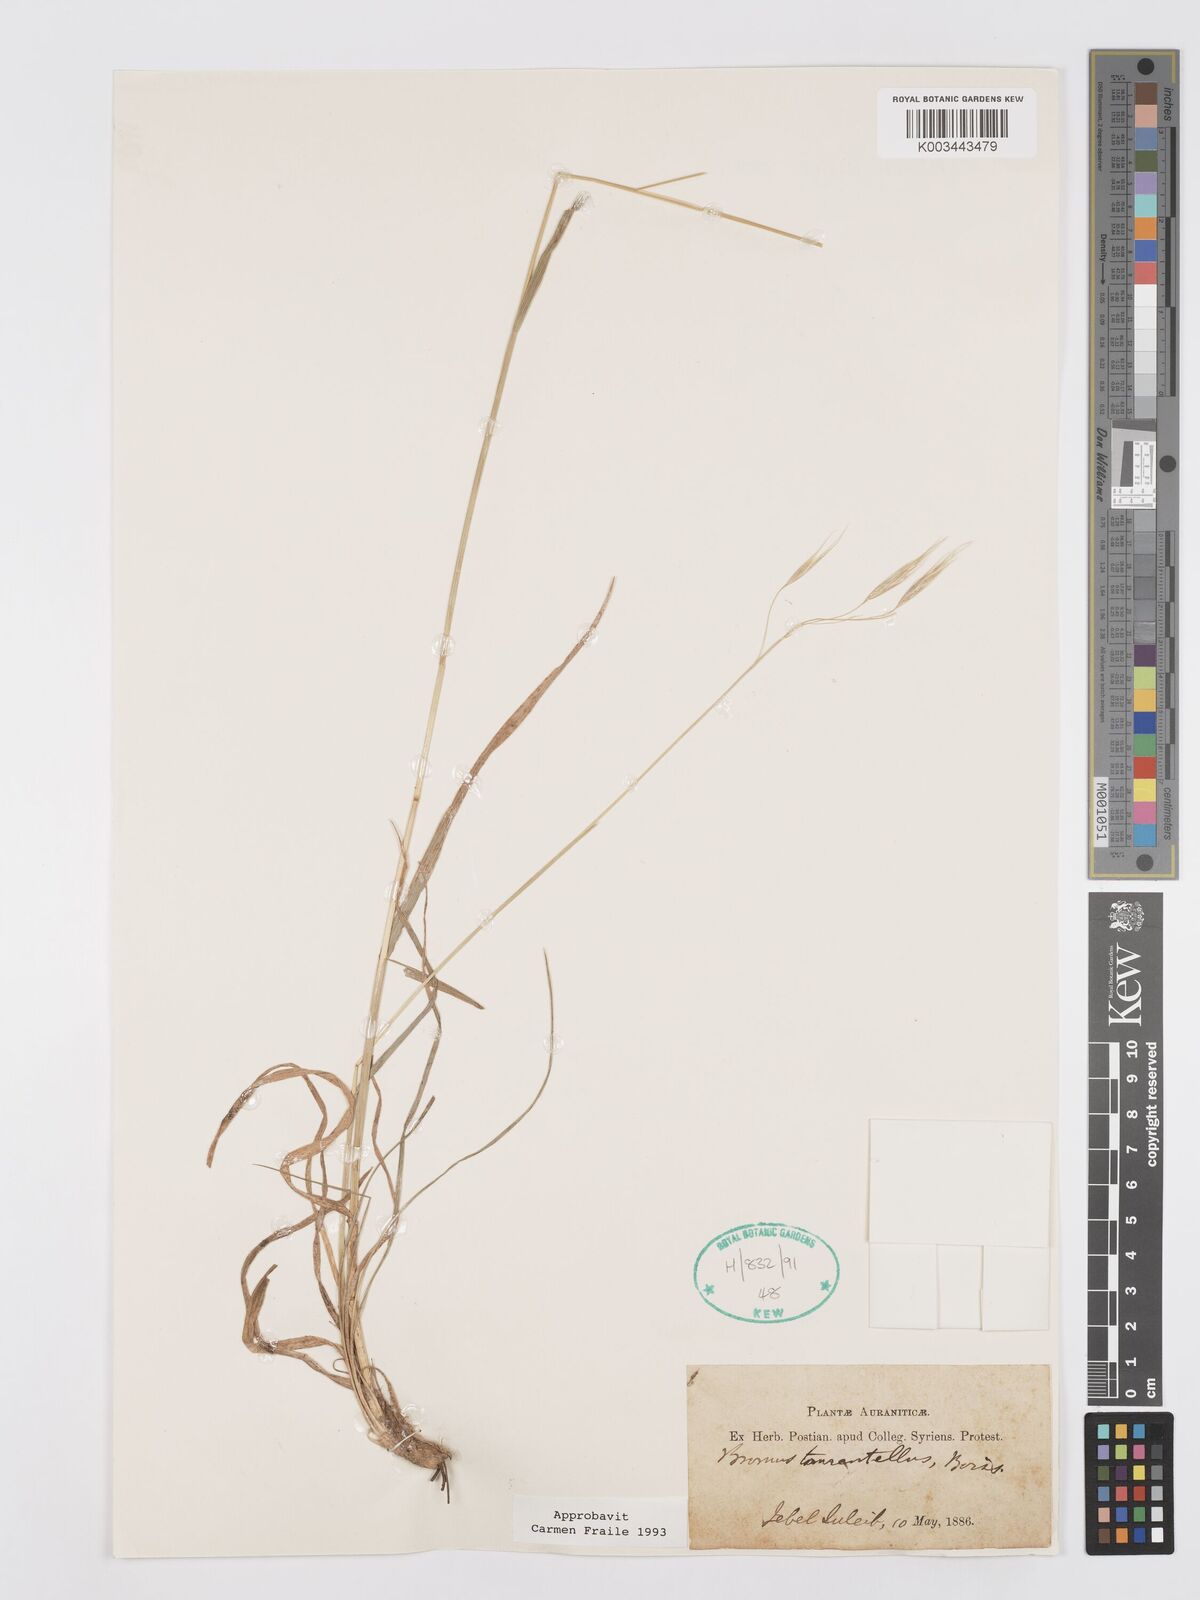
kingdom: Plantae
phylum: Tracheophyta
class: Liliopsida
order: Poales
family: Poaceae
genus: Bromus
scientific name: Bromus tomentellus
